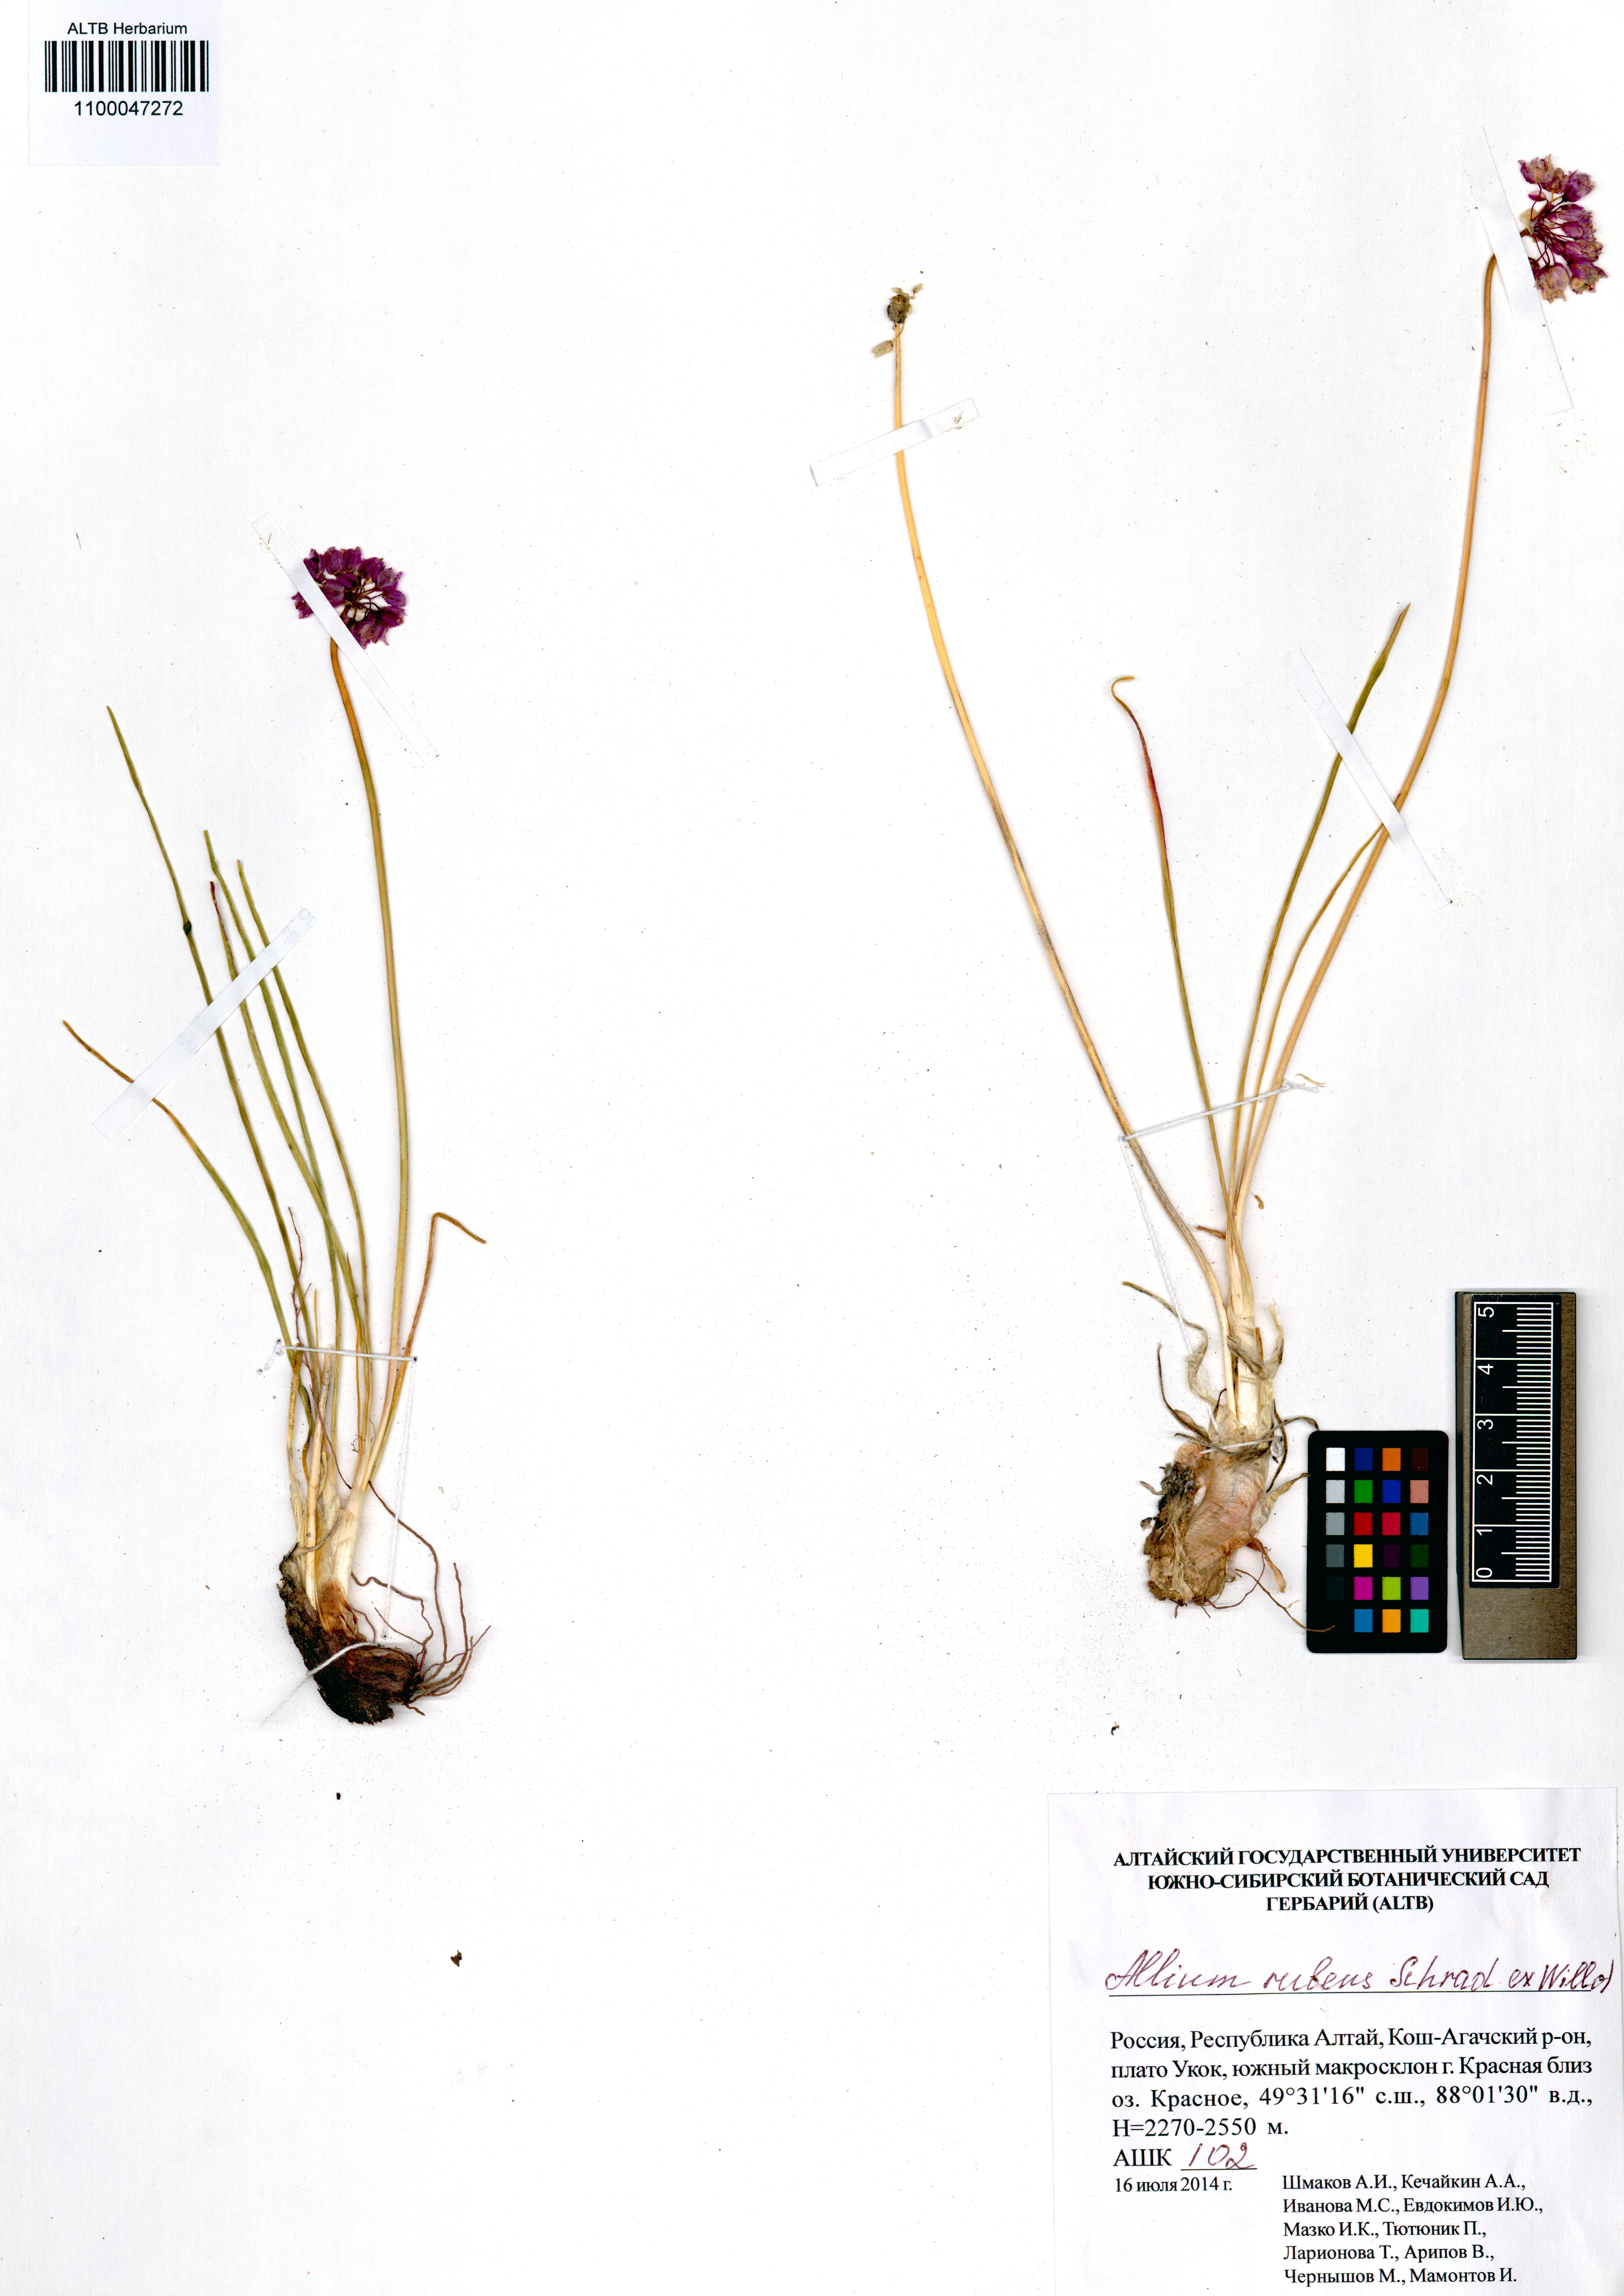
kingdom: Plantae
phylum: Tracheophyta
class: Liliopsida
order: Asparagales
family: Amaryllidaceae
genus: Allium
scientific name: Allium rubens
